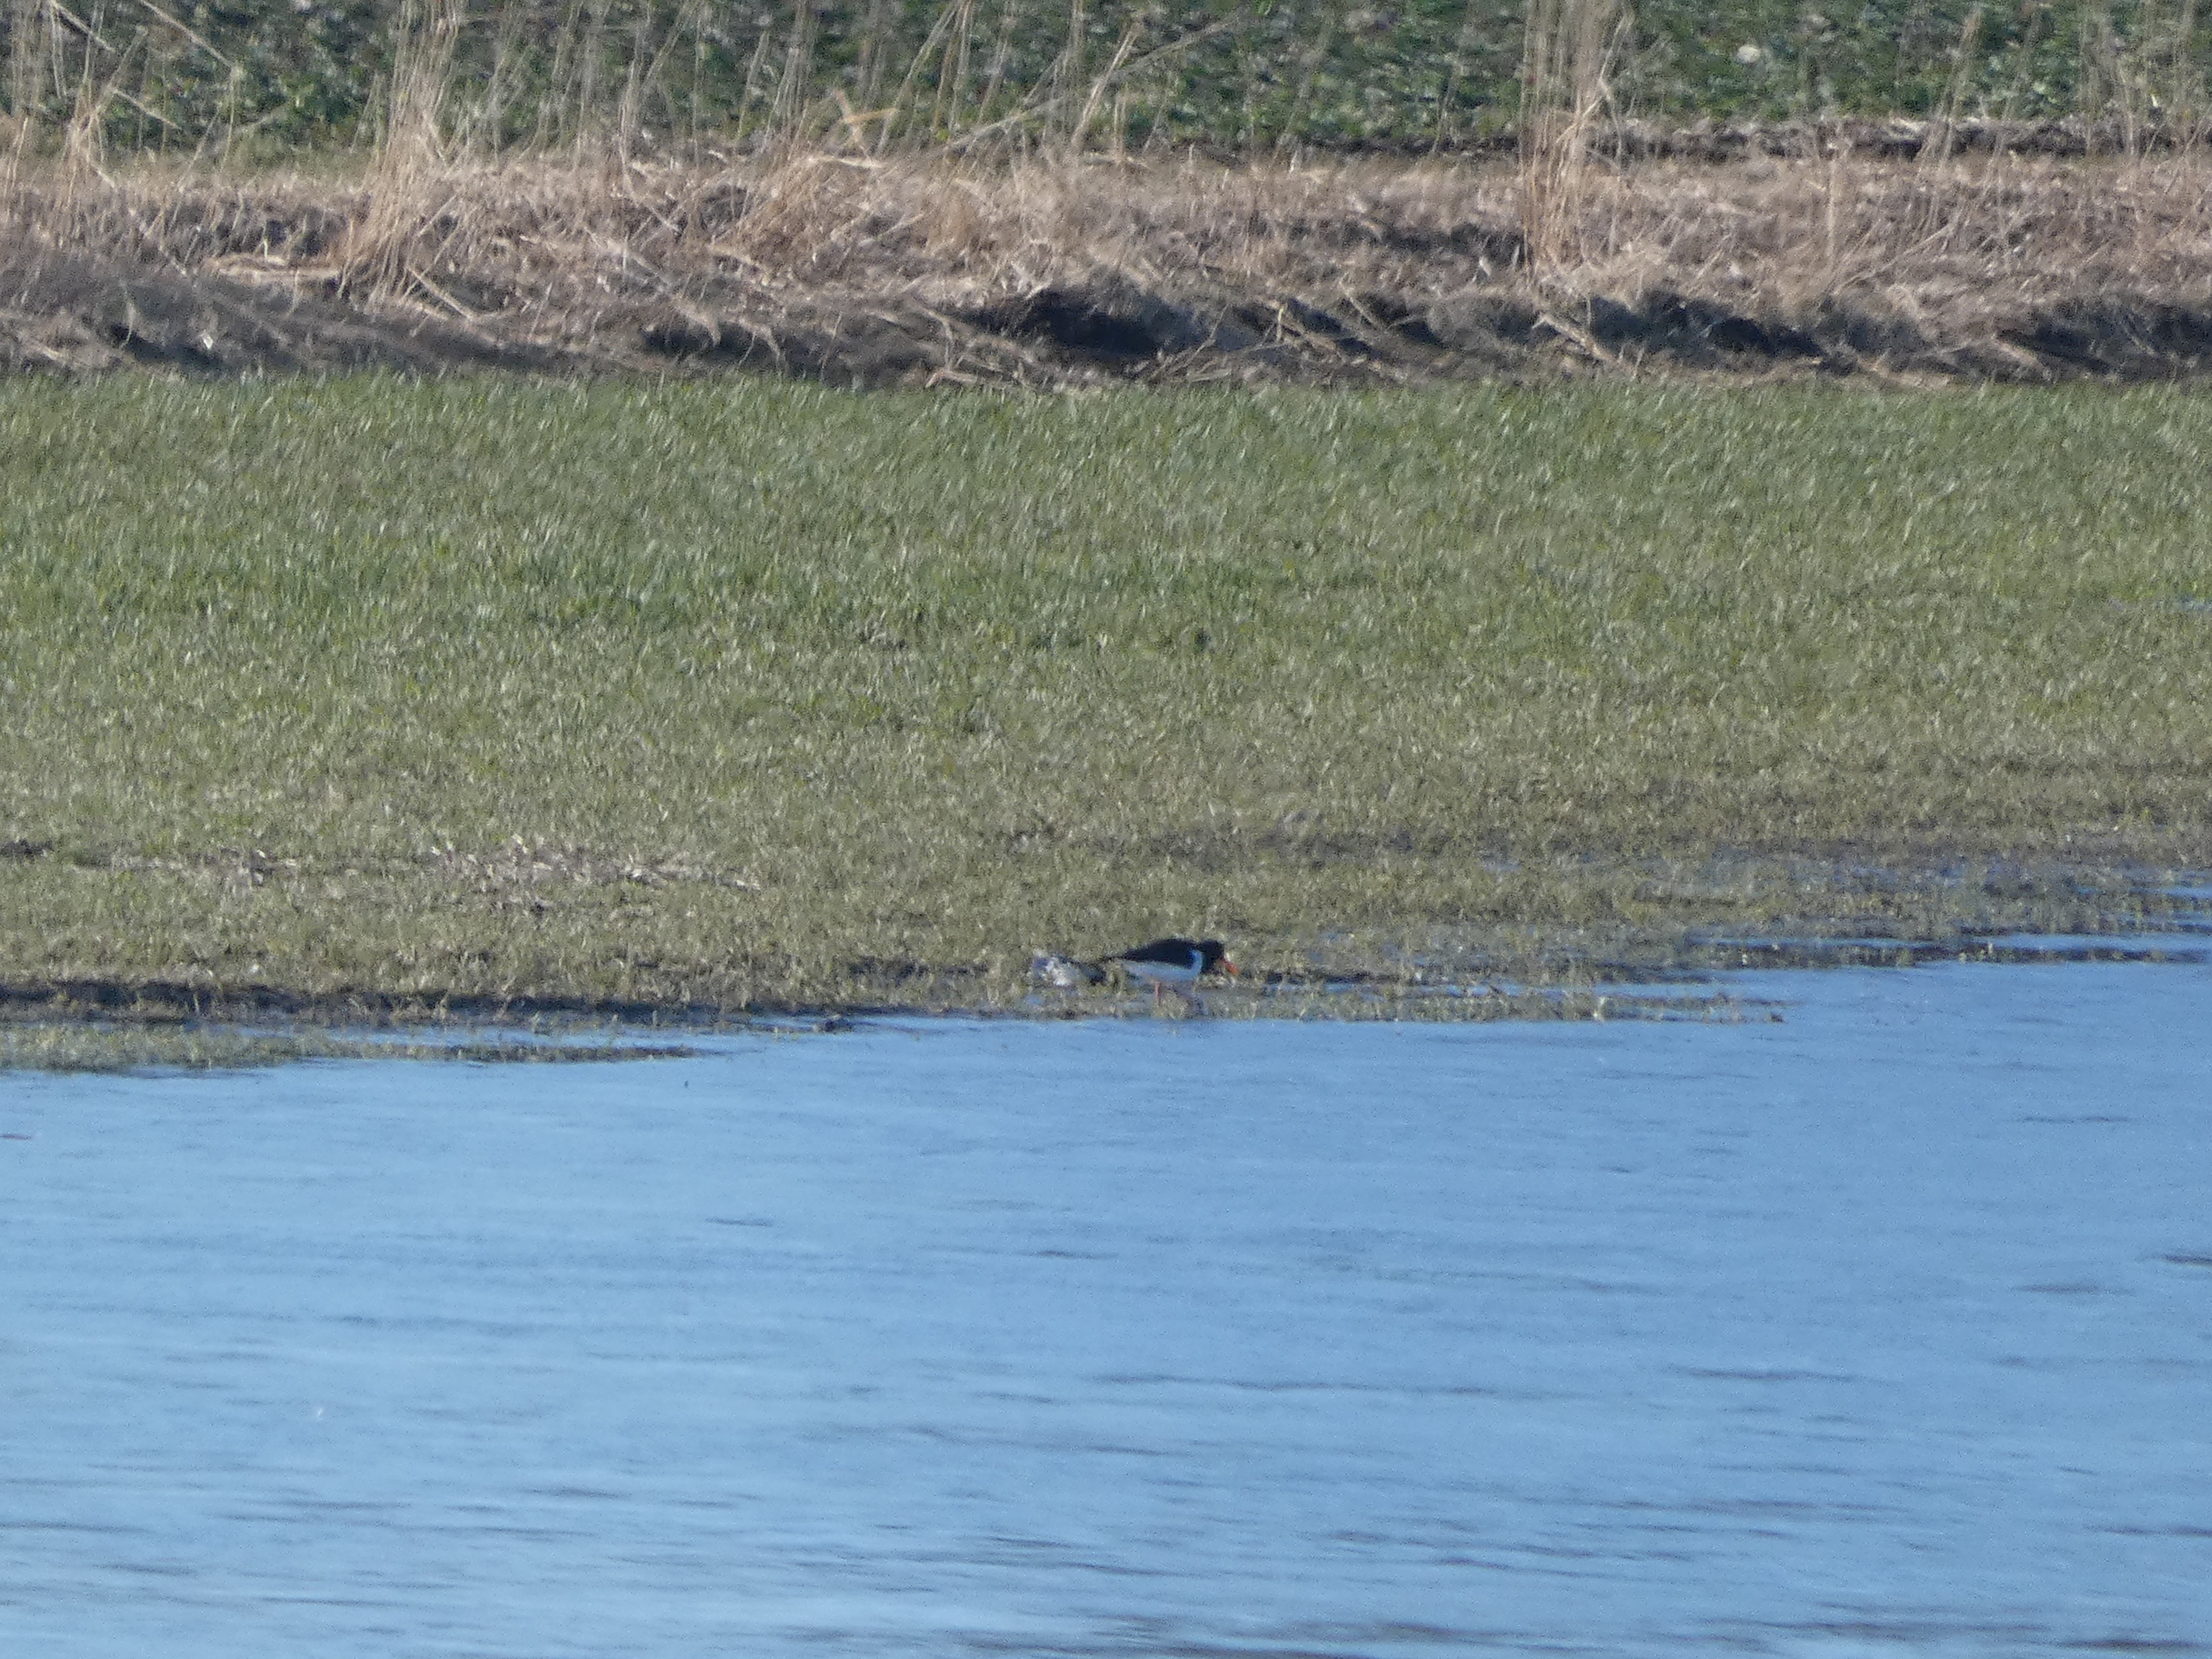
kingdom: Animalia
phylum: Chordata
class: Aves
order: Charadriiformes
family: Haematopodidae
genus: Haematopus
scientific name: Haematopus ostralegus
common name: Strandskade
